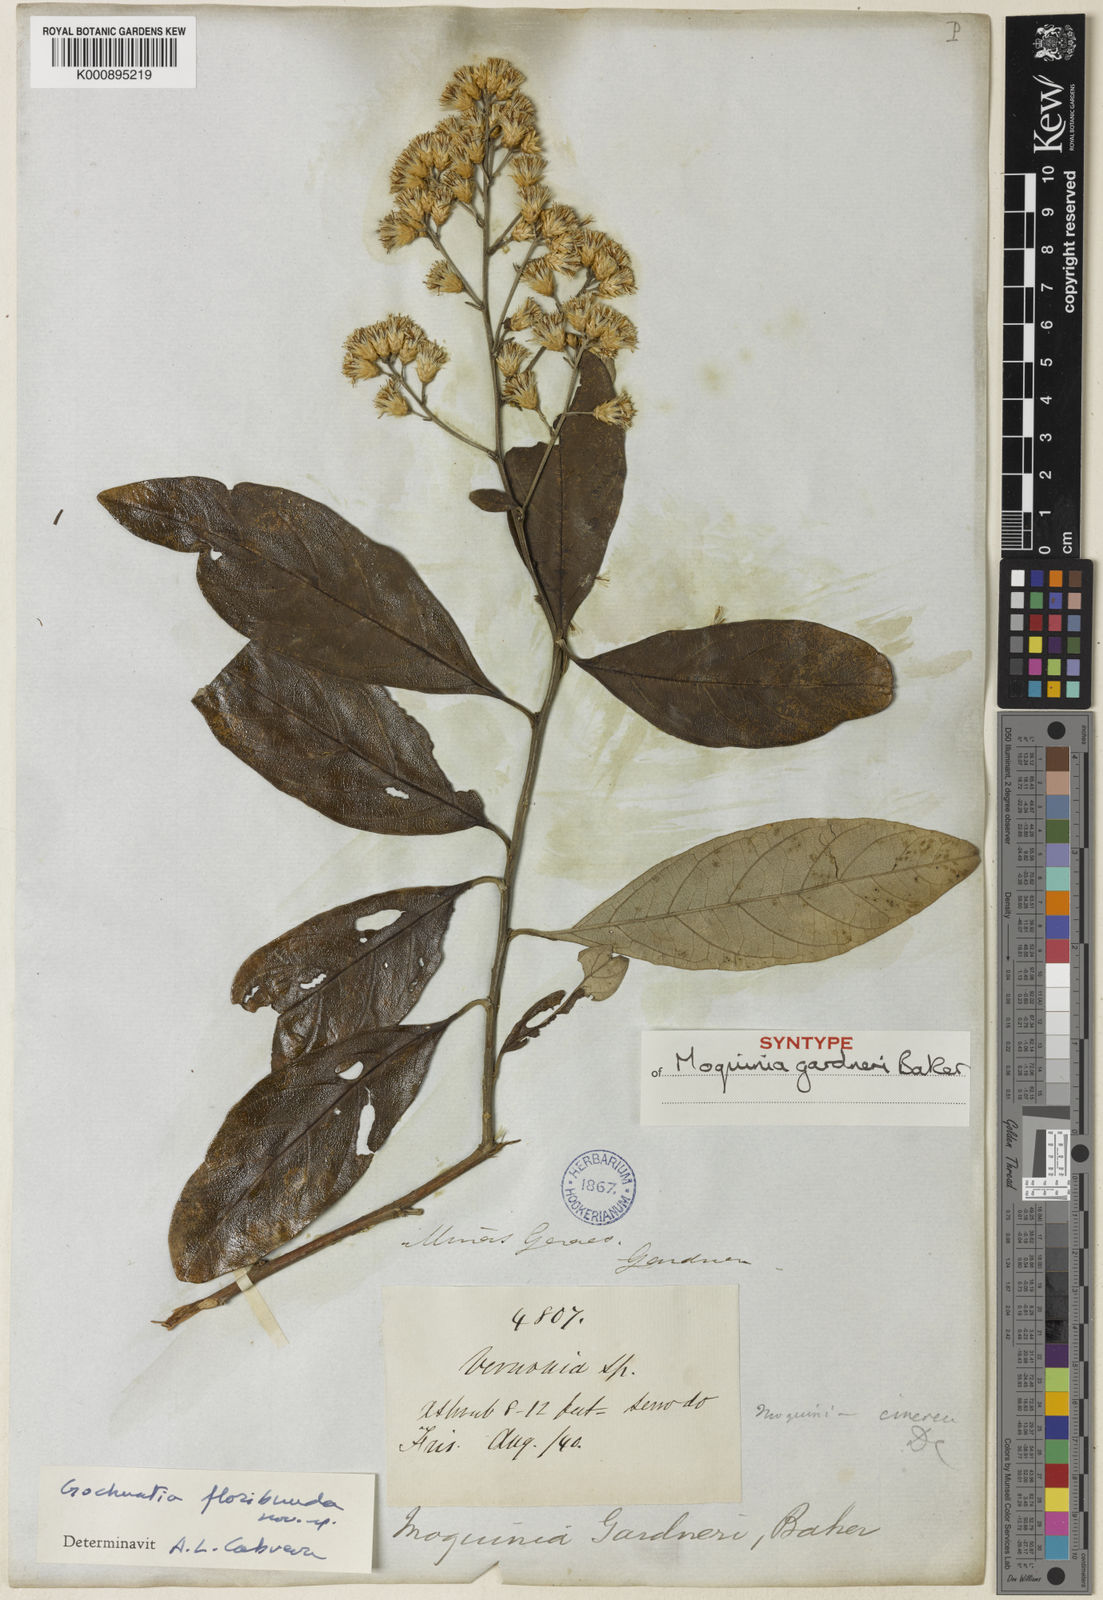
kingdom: Plantae
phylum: Tracheophyta
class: Magnoliopsida
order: Asterales
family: Asteraceae
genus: Moquiniastrum
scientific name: Moquiniastrum floribundum
